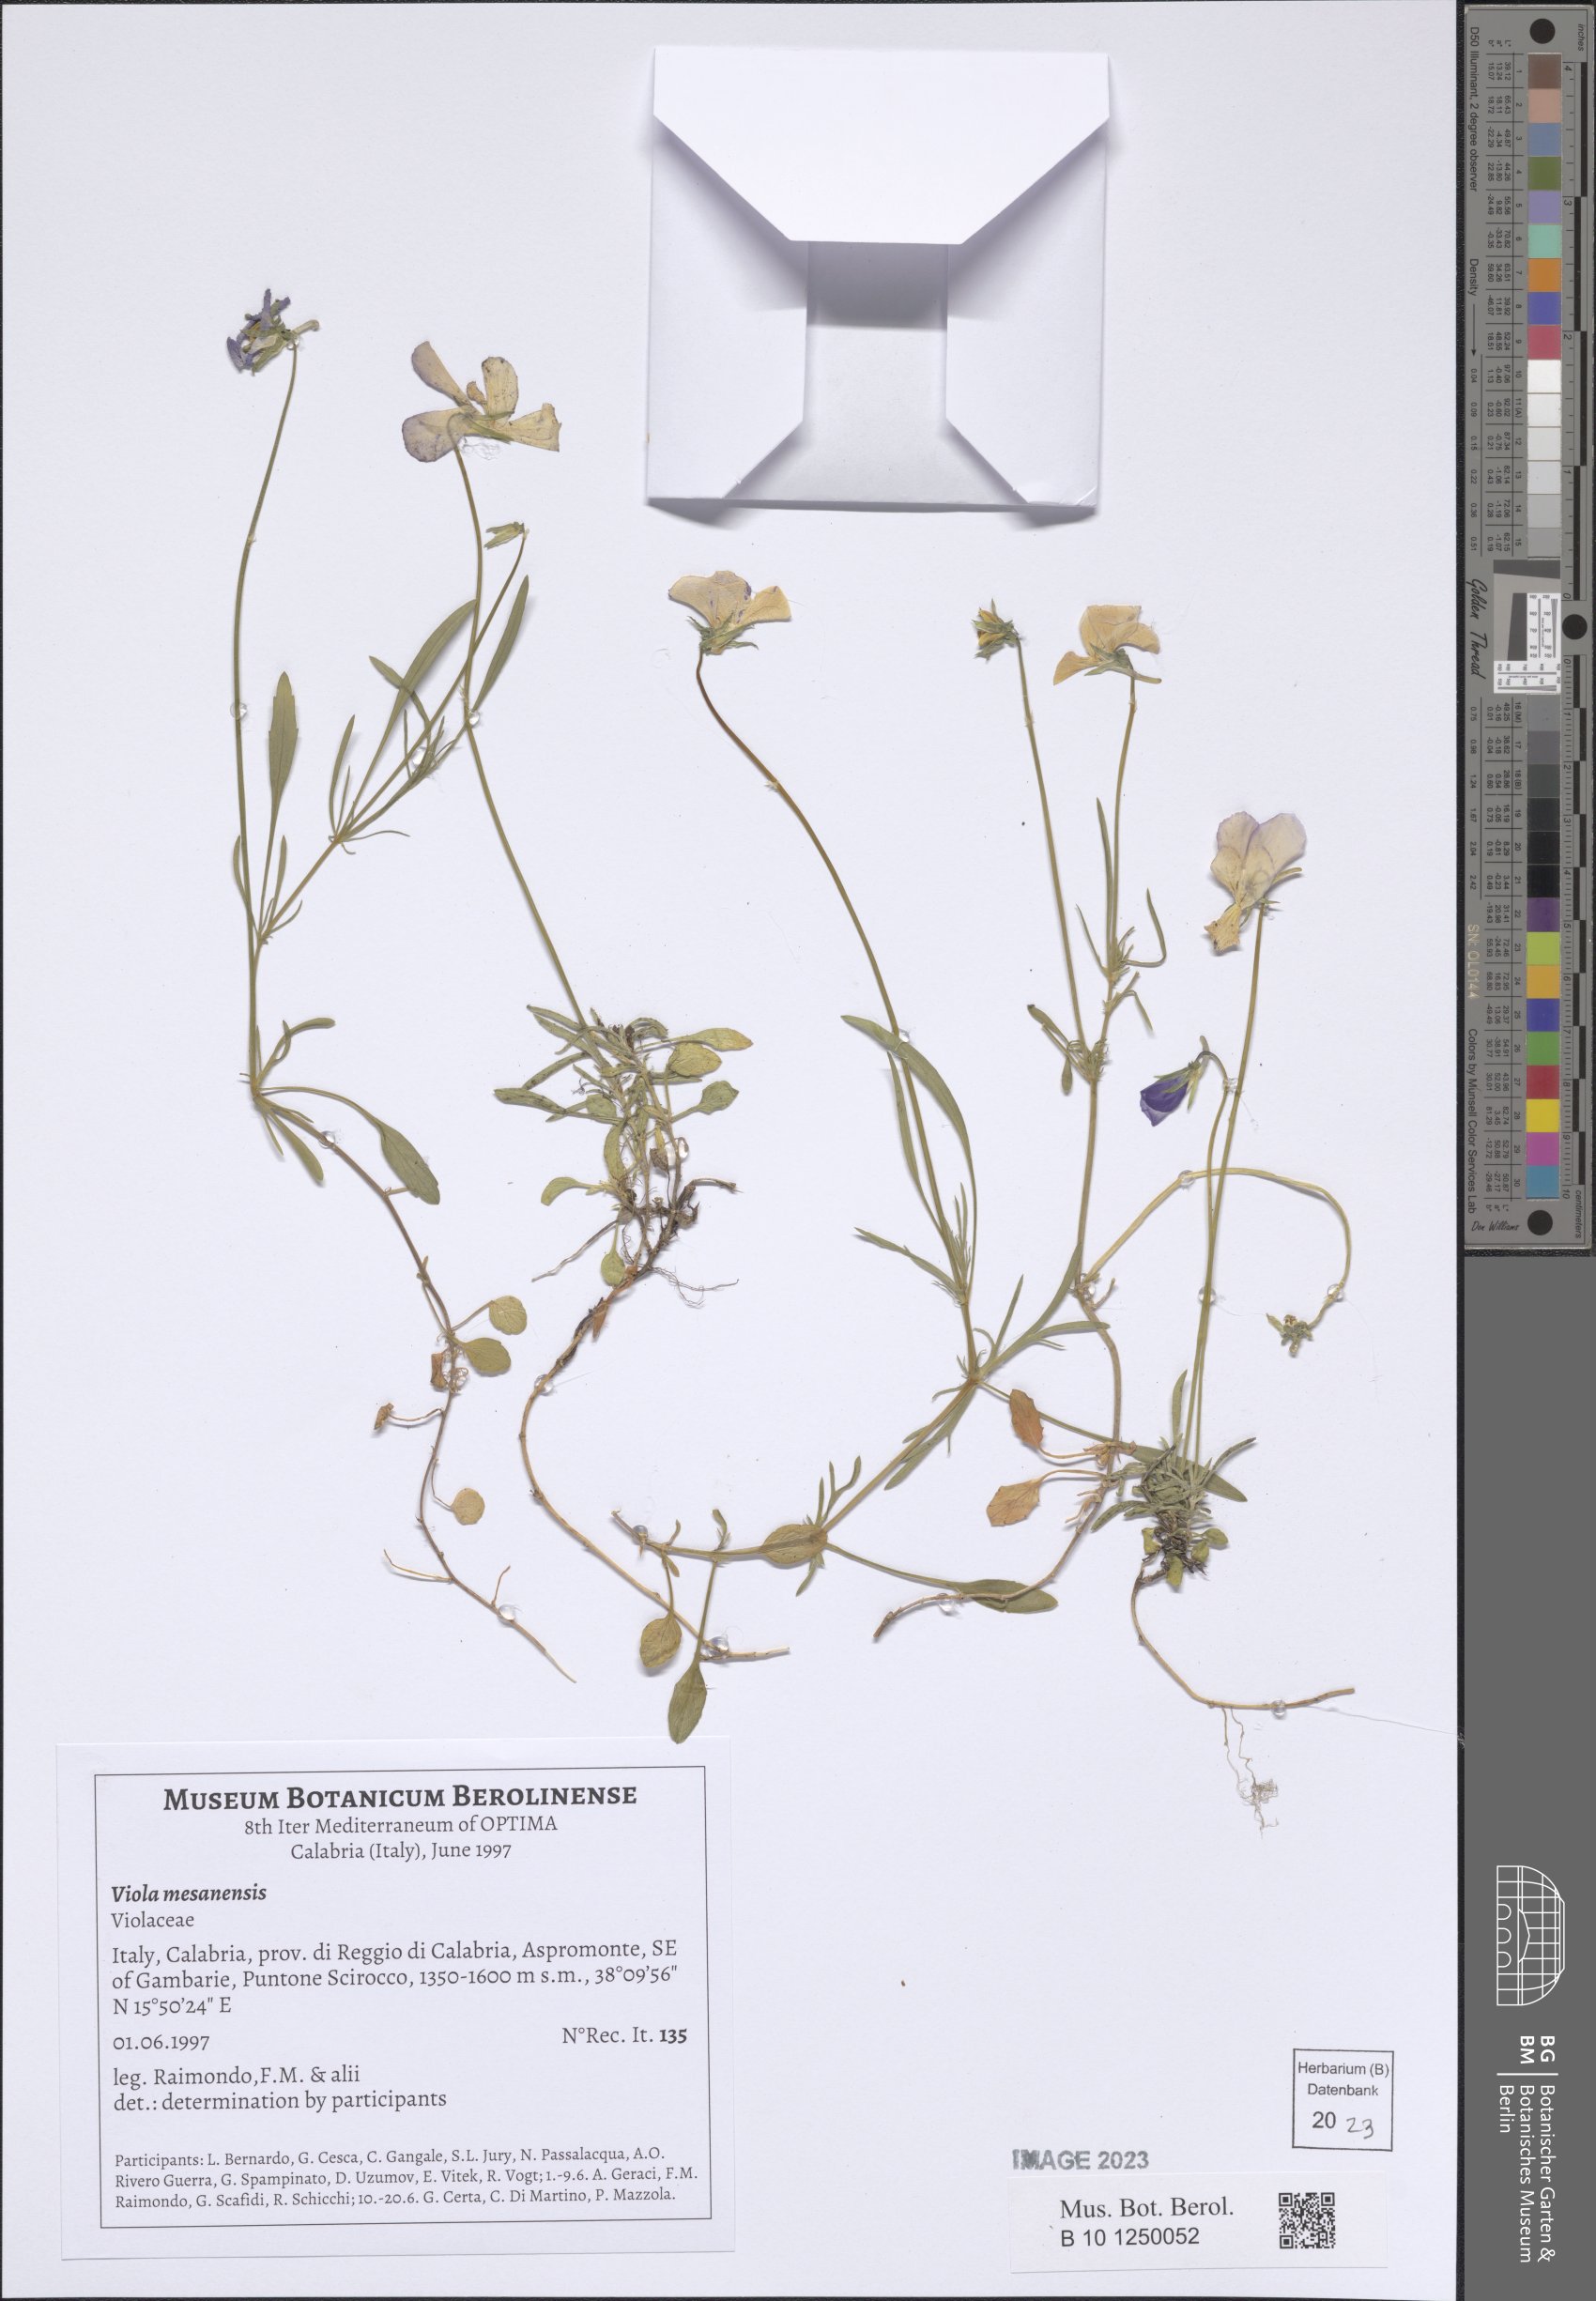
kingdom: Plantae
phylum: Tracheophyta
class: Magnoliopsida
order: Malpighiales
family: Violaceae
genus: Viola
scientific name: Viola mesadensis
